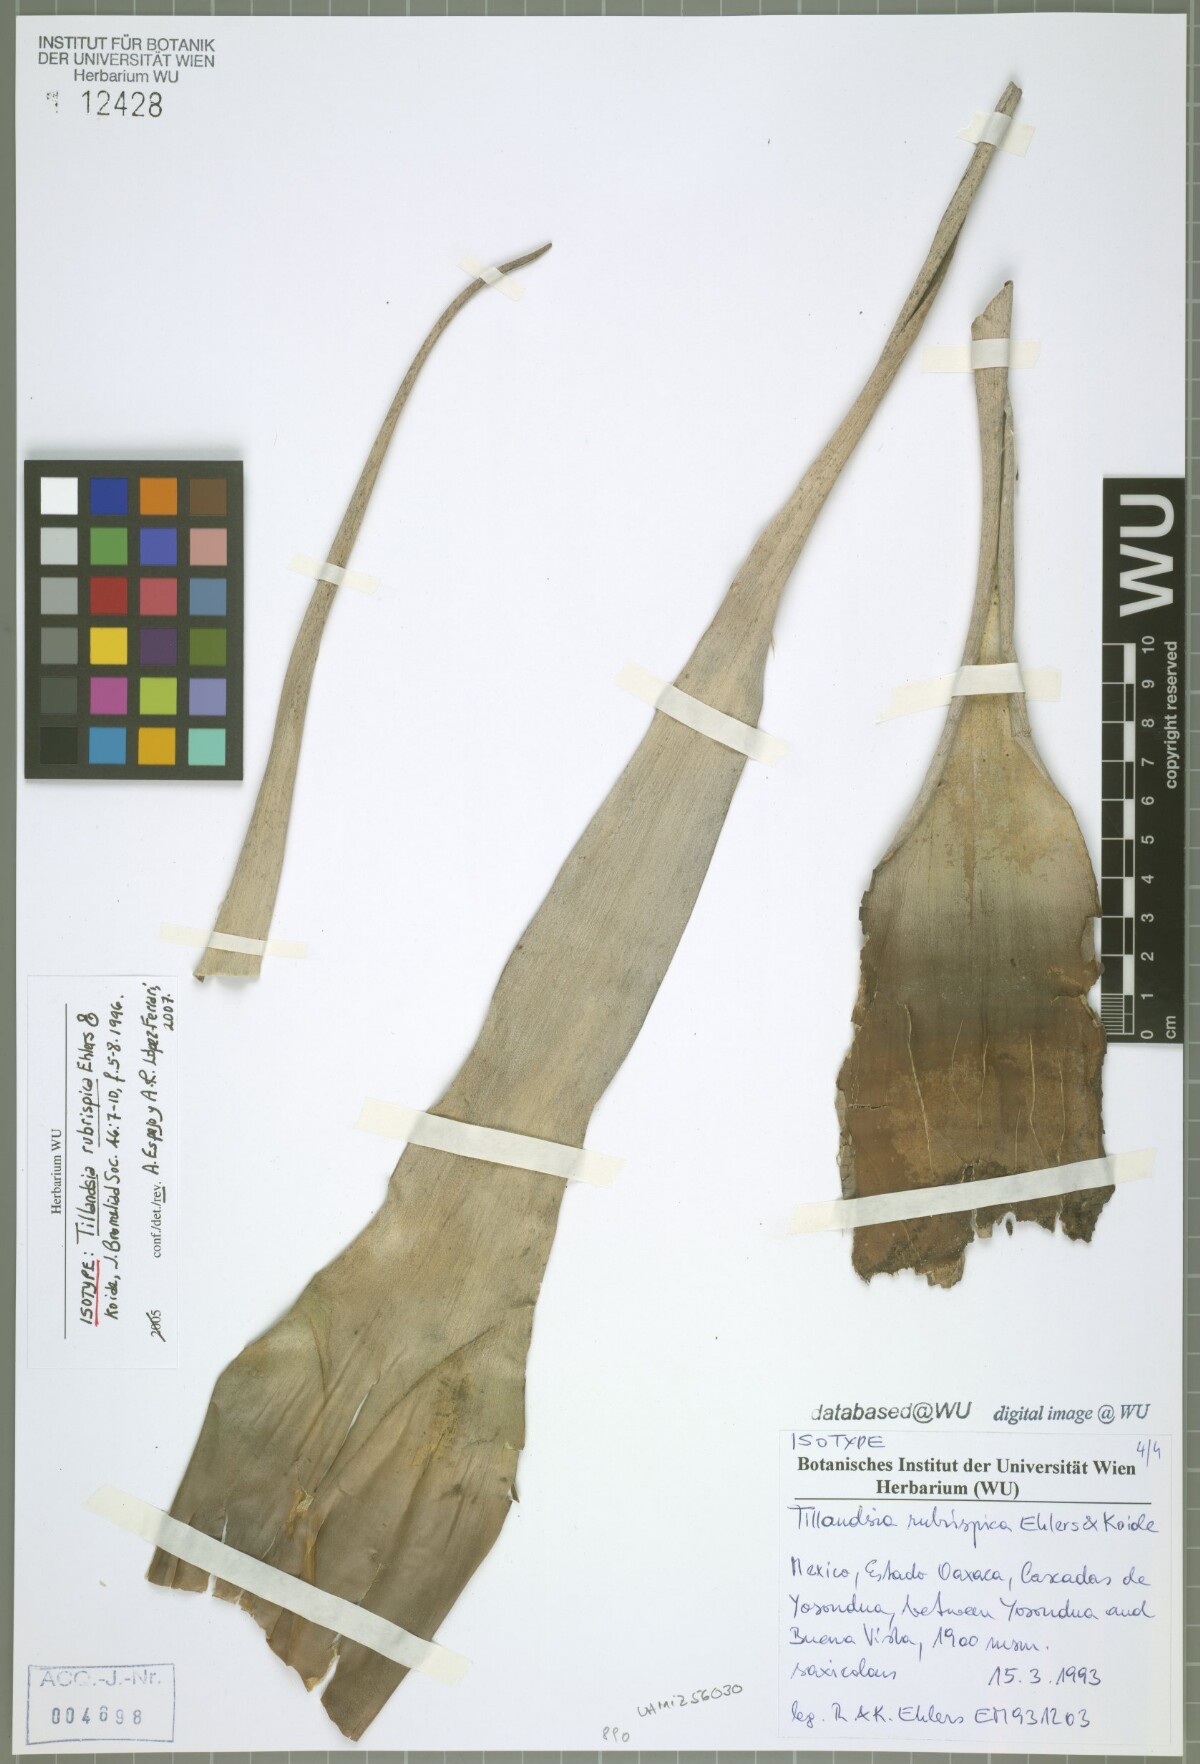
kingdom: Plantae
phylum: Tracheophyta
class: Liliopsida
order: Poales
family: Bromeliaceae
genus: Tillandsia
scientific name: Tillandsia rubrispica
